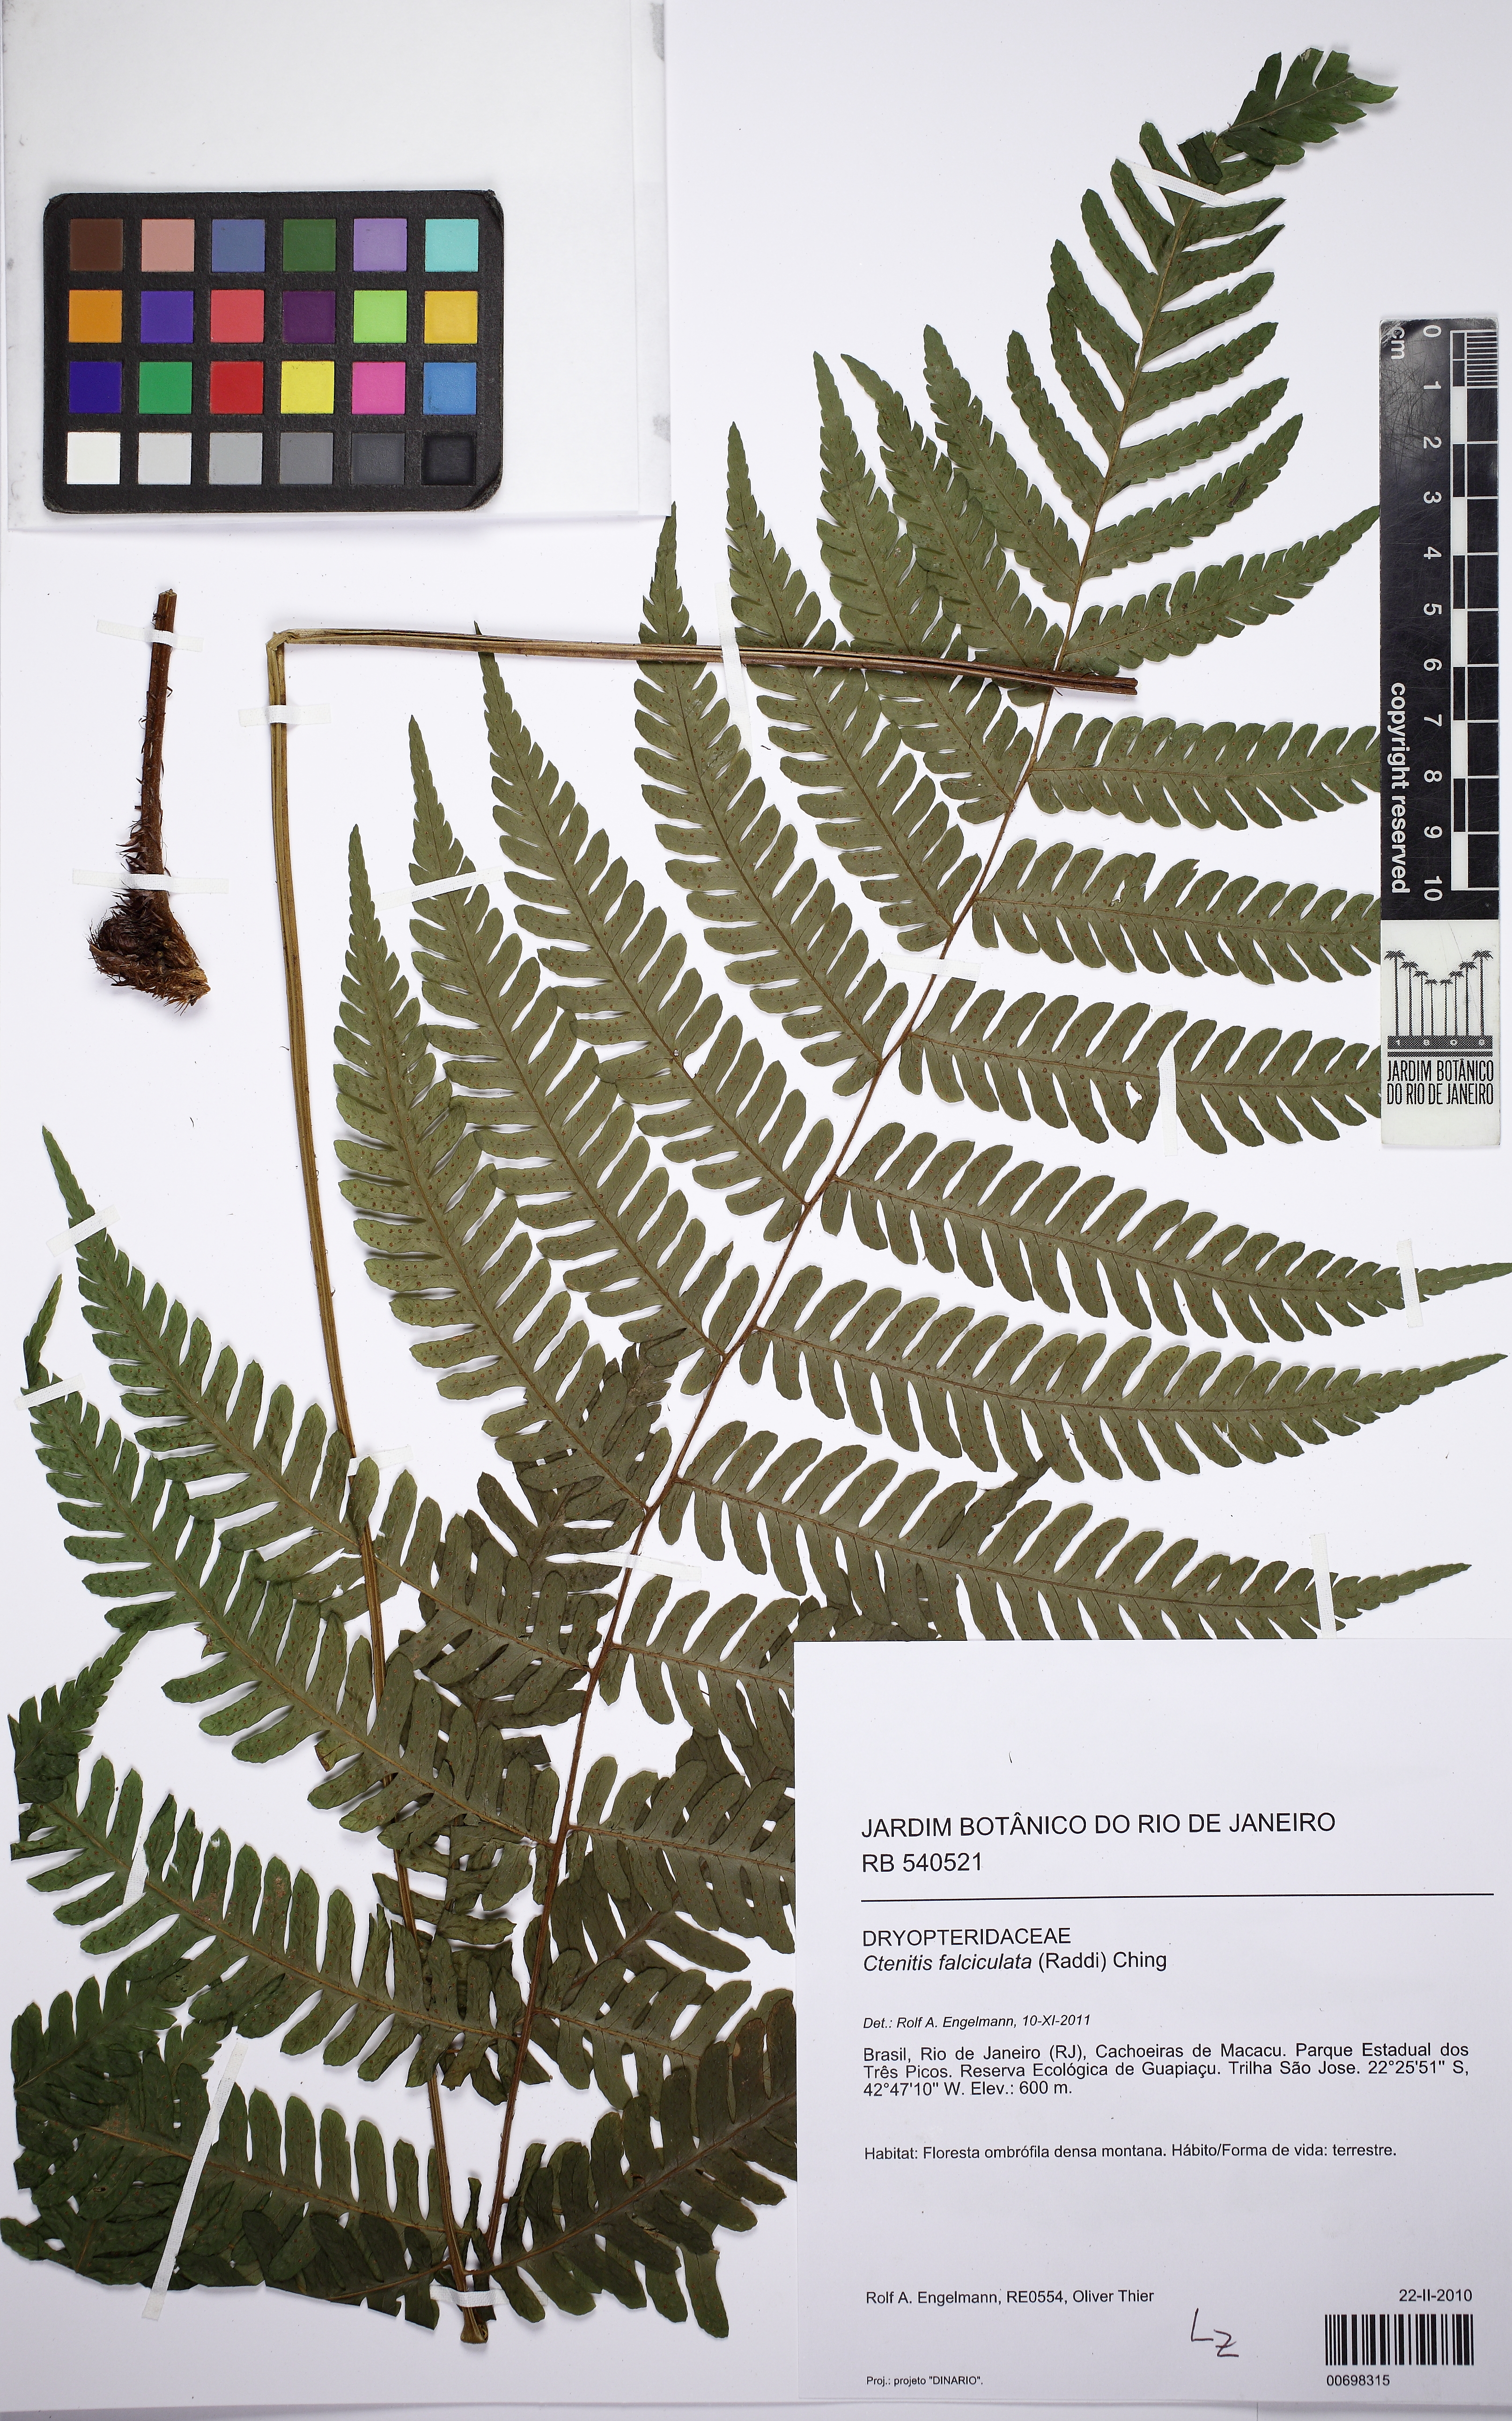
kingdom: Plantae
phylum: Tracheophyta
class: Polypodiopsida
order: Polypodiales
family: Dryopteridaceae
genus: Ctenitis
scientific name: Ctenitis falciculata
